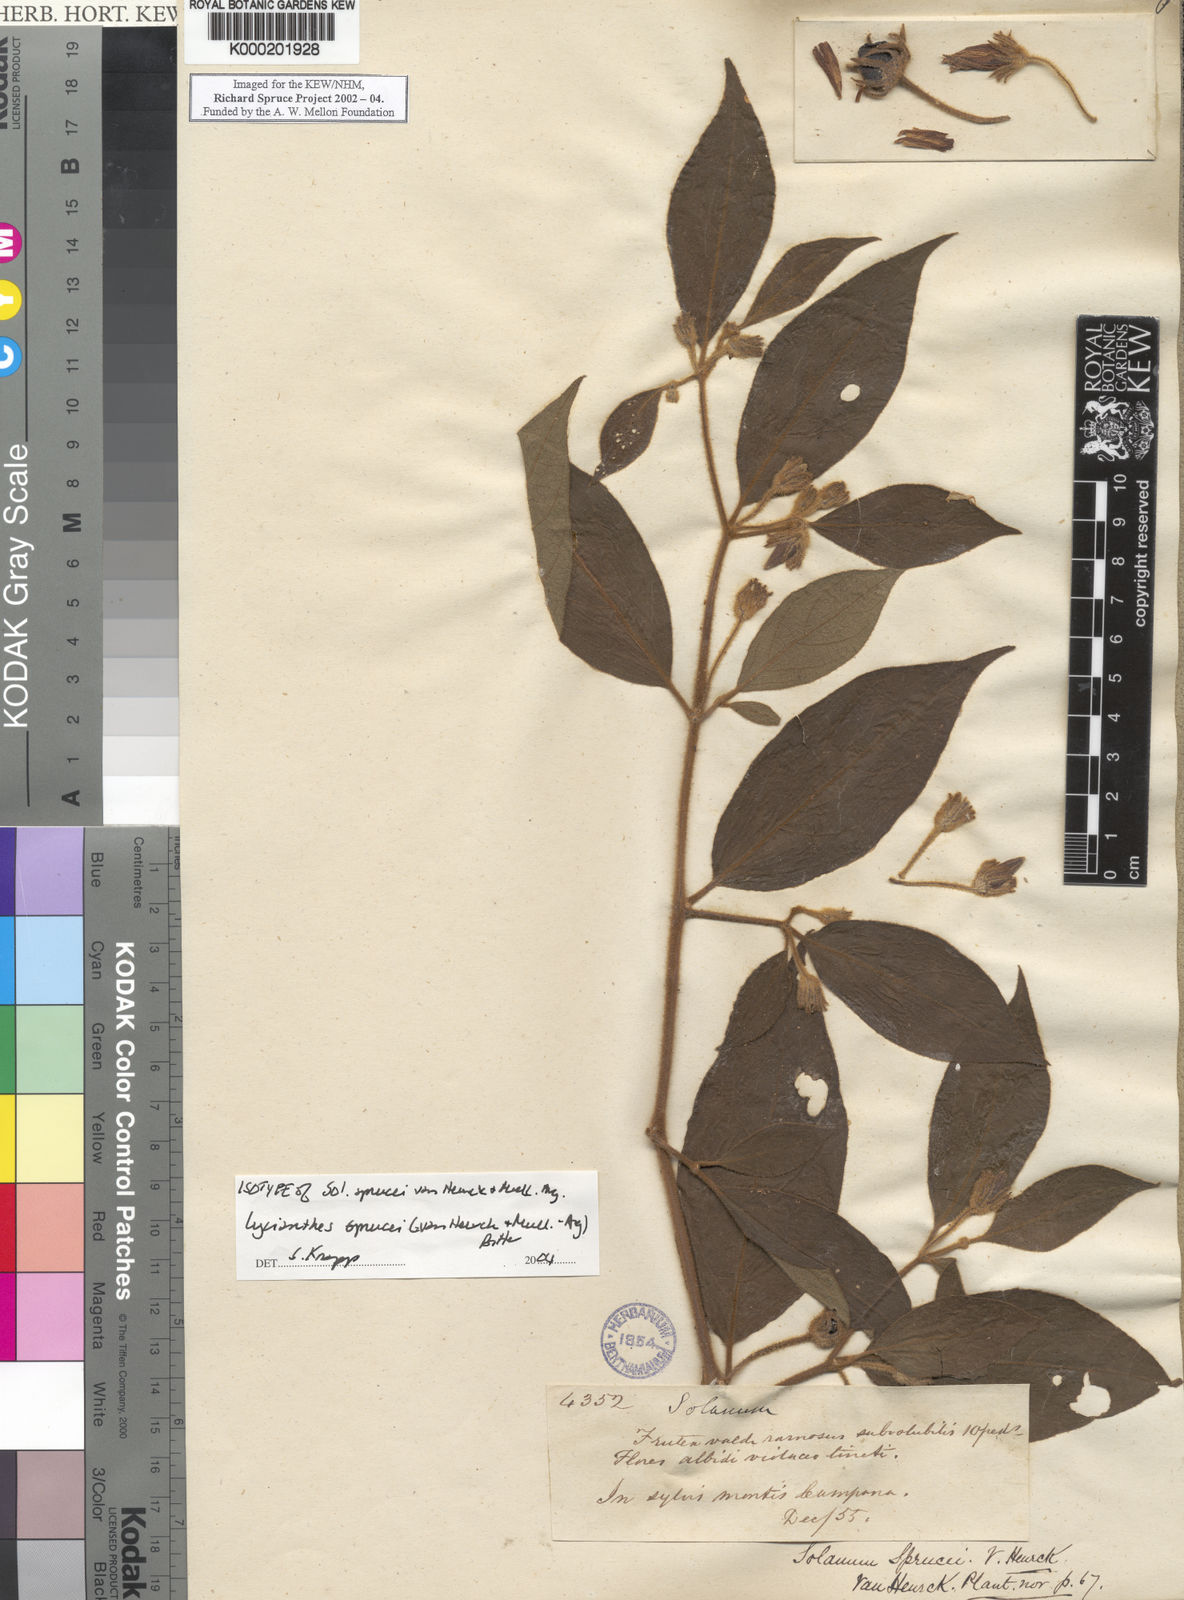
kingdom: Plantae
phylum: Tracheophyta
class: Magnoliopsida
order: Solanales
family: Solanaceae
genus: Lycianthes
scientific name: Lycianthes
